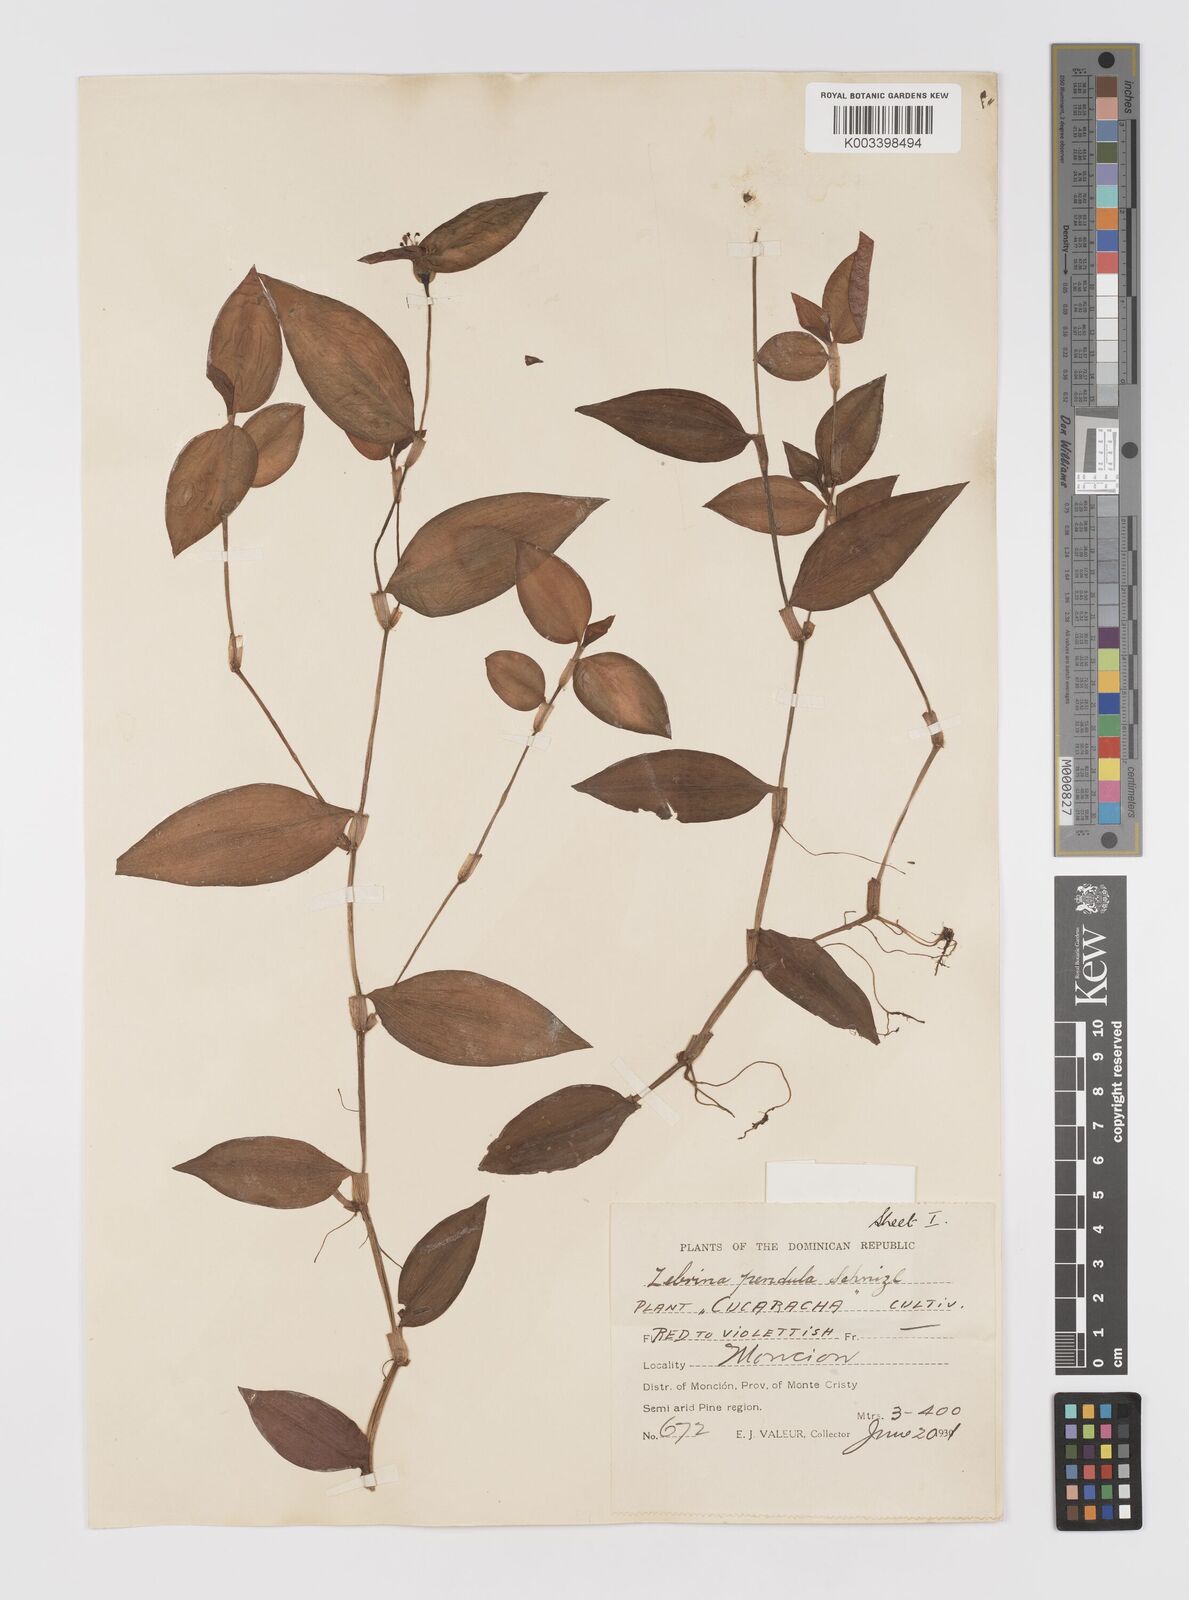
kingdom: Plantae
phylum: Tracheophyta
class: Liliopsida
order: Commelinales
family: Commelinaceae
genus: Tradescantia
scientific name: Tradescantia zebrina
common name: Inchplant
